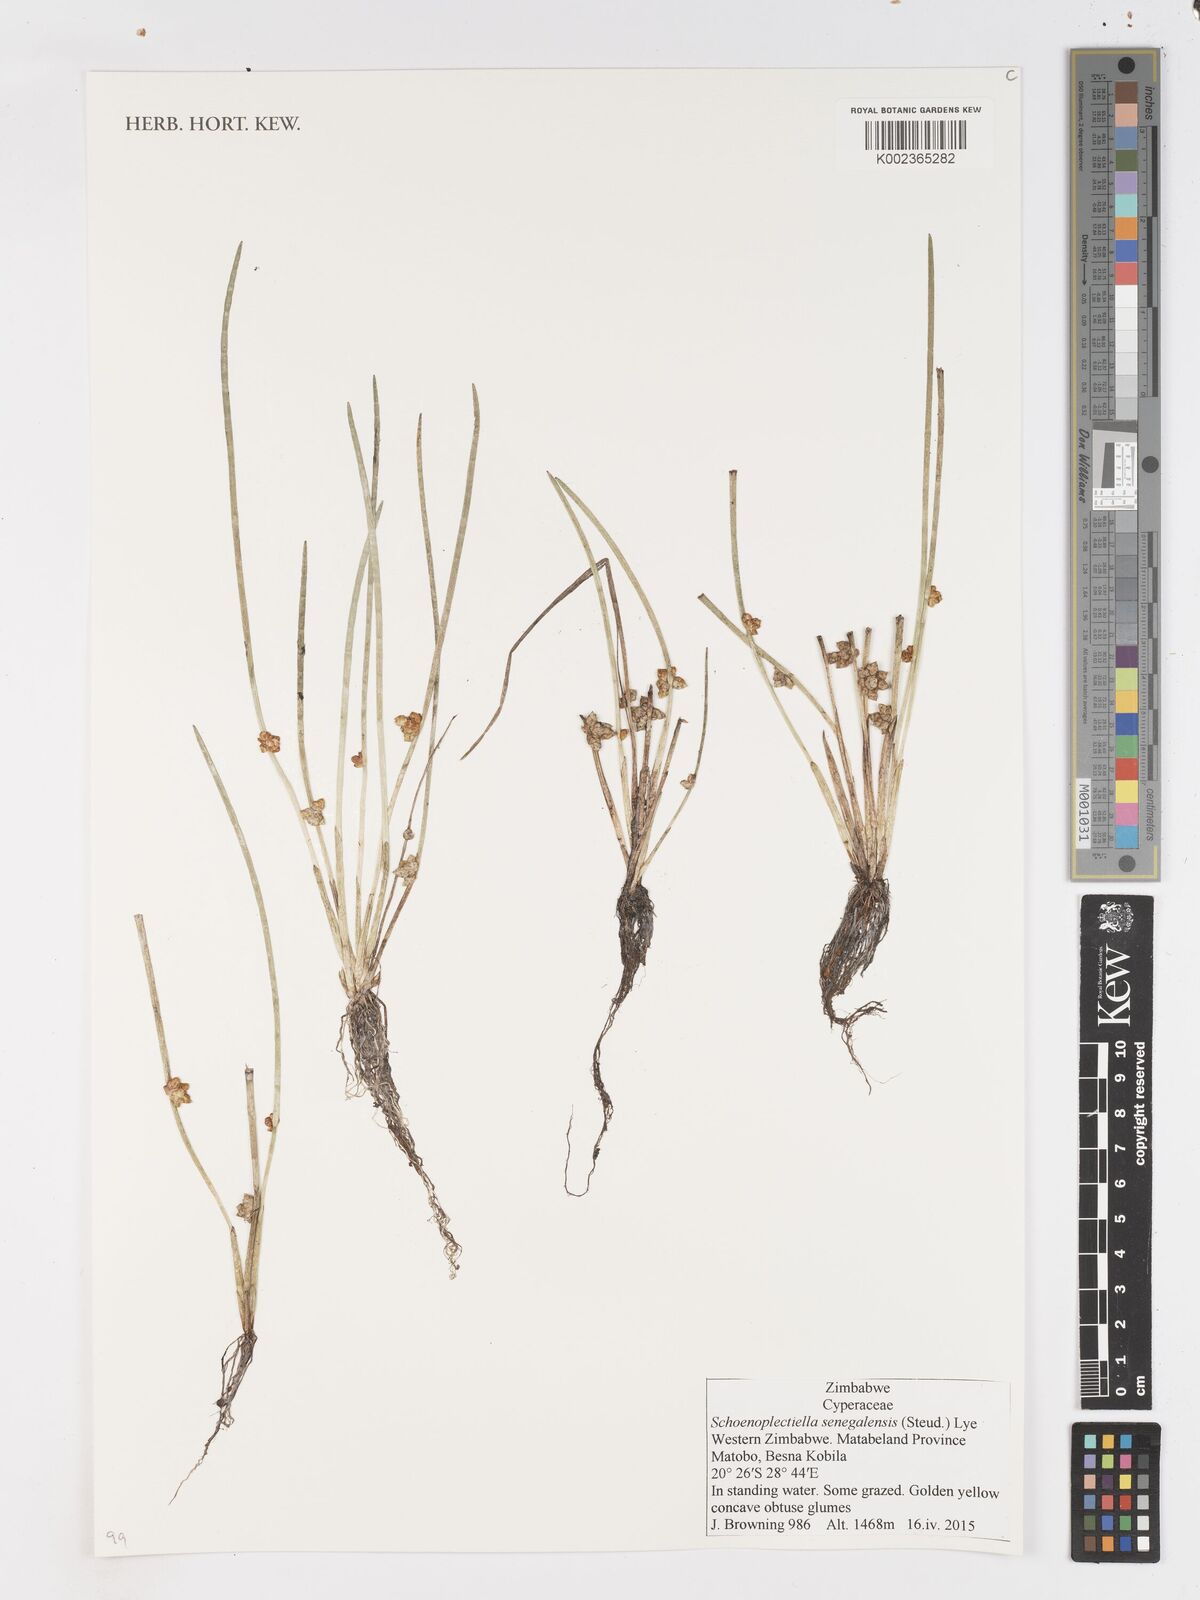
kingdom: Plantae
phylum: Tracheophyta
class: Liliopsida
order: Poales
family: Cyperaceae
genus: Schoenoplectiella
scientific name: Schoenoplectiella senegalensis
